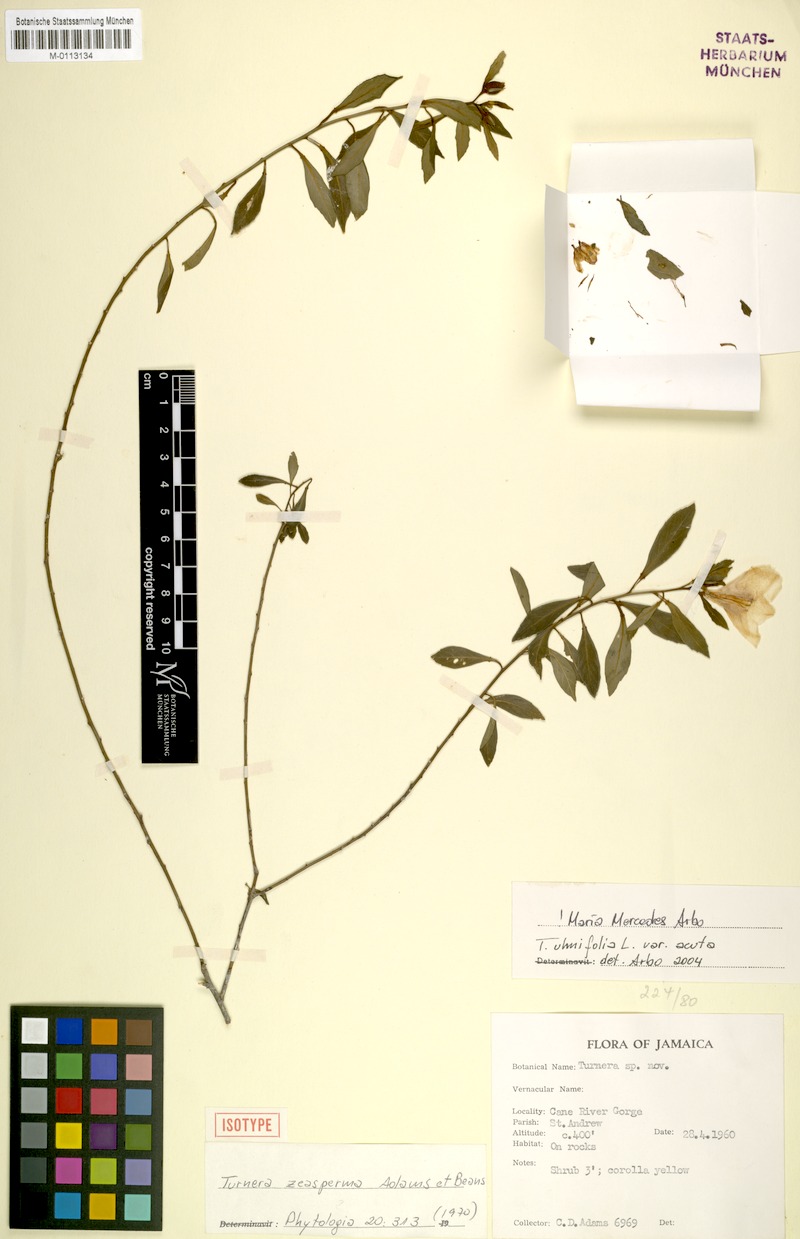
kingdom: Plantae
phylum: Tracheophyta
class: Magnoliopsida
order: Malpighiales
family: Turneraceae
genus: Turnera
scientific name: Turnera
